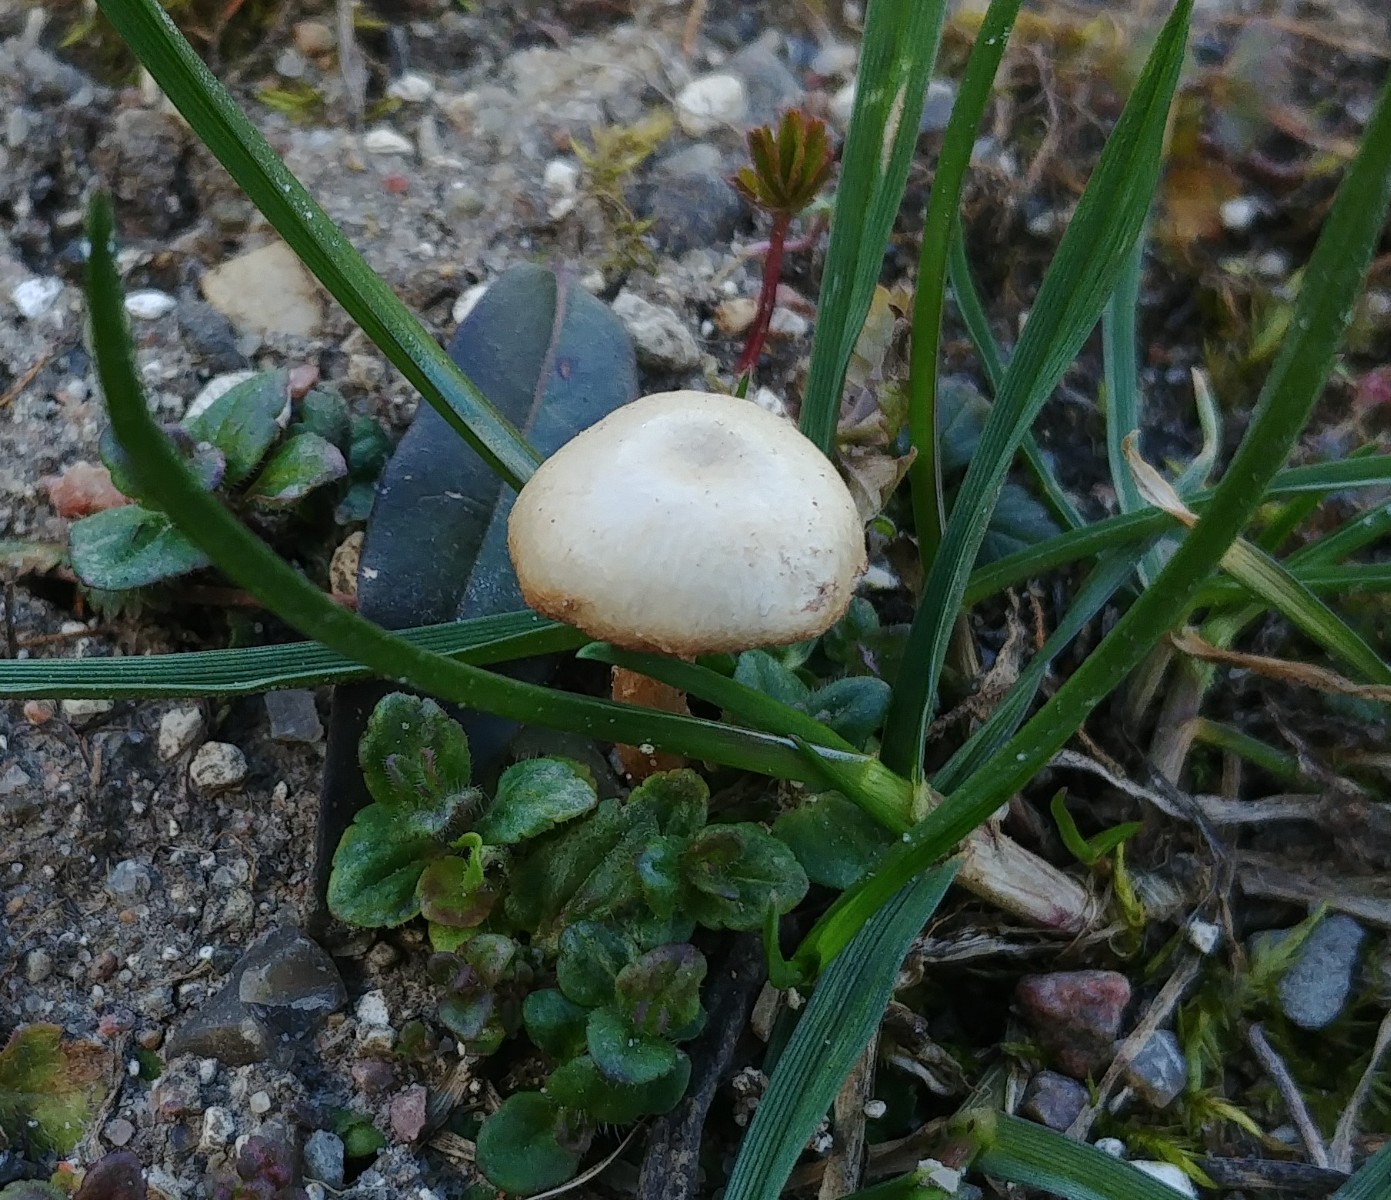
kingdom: Fungi
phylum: Basidiomycota
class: Agaricomycetes
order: Agaricales
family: Tubariaceae
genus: Tubaria
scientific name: Tubaria furfuracea
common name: kliddet fnughat
